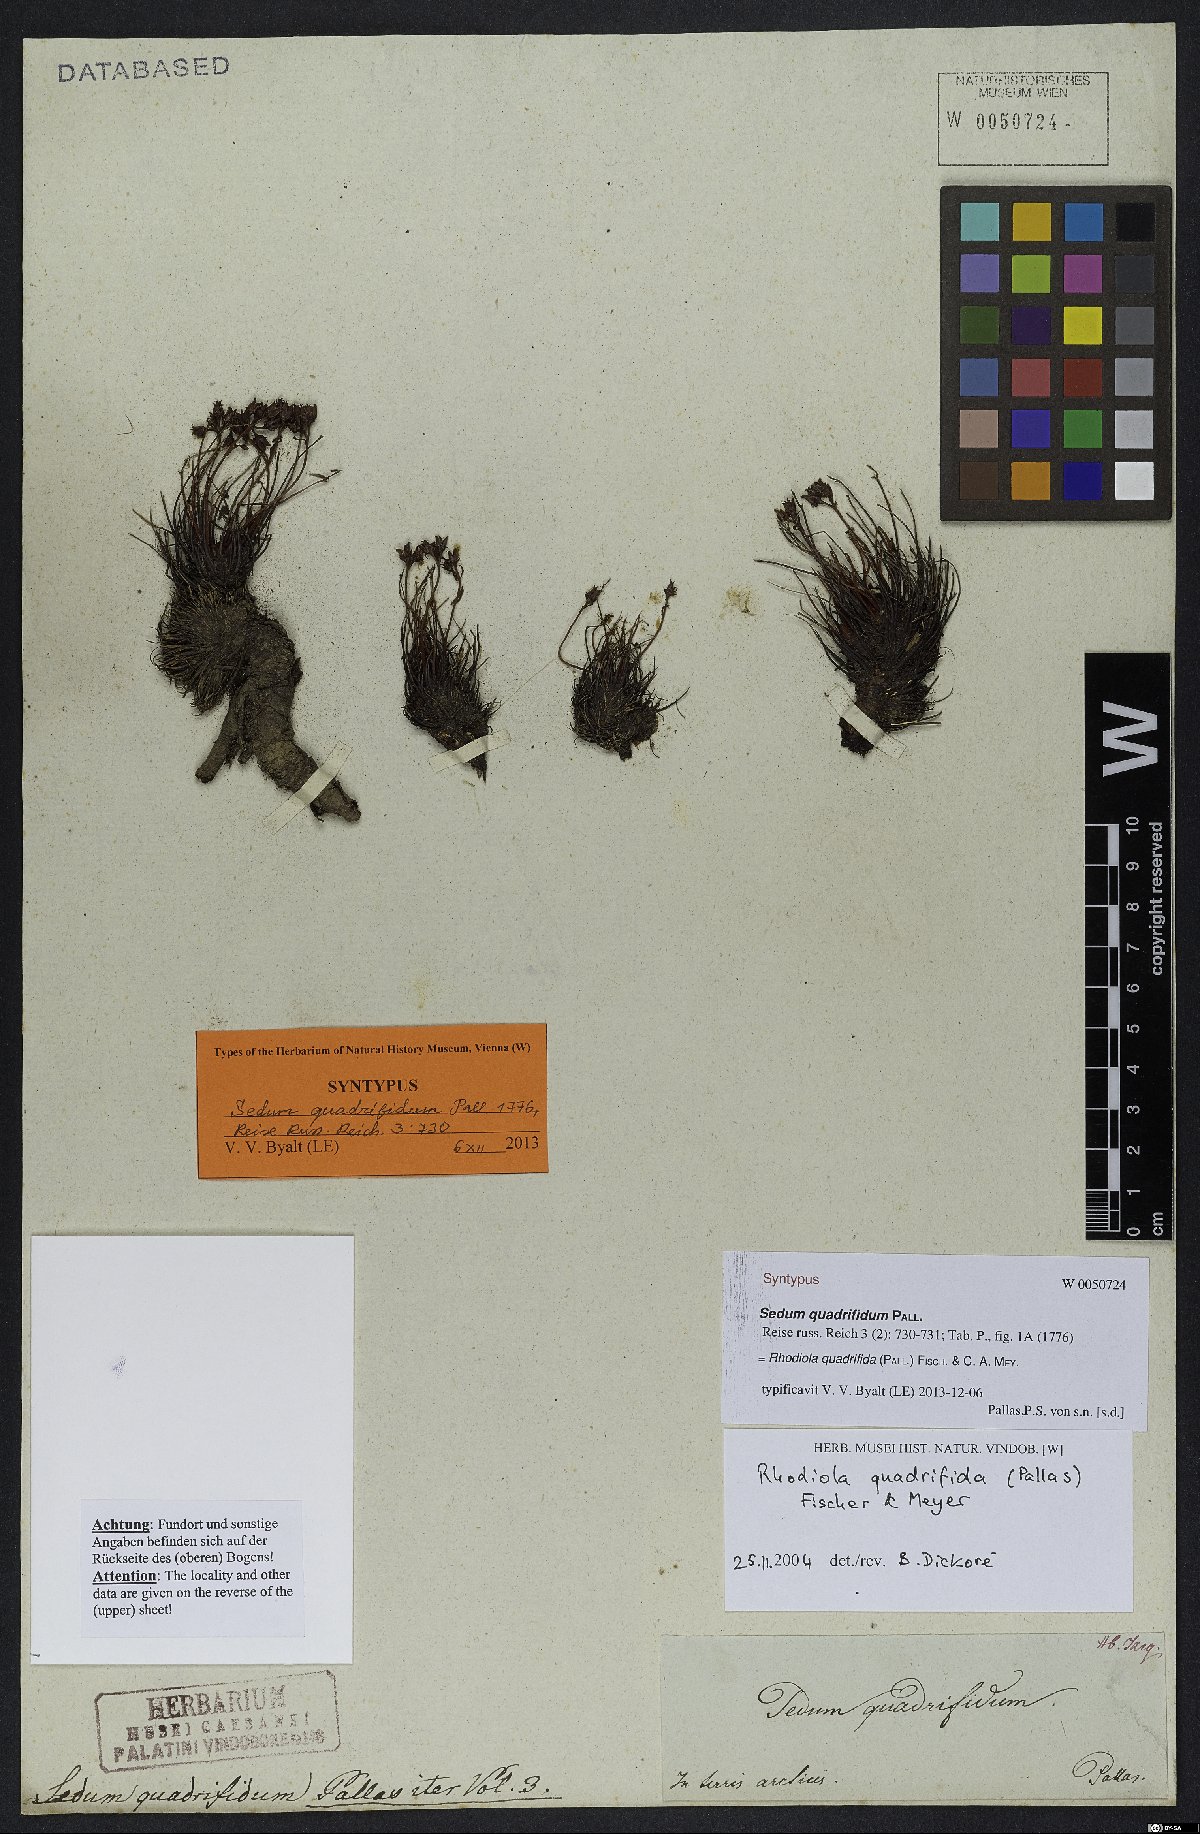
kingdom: Plantae
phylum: Tracheophyta
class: Magnoliopsida
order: Saxifragales
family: Crassulaceae
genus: Rhodiola
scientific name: Rhodiola quadrifida
